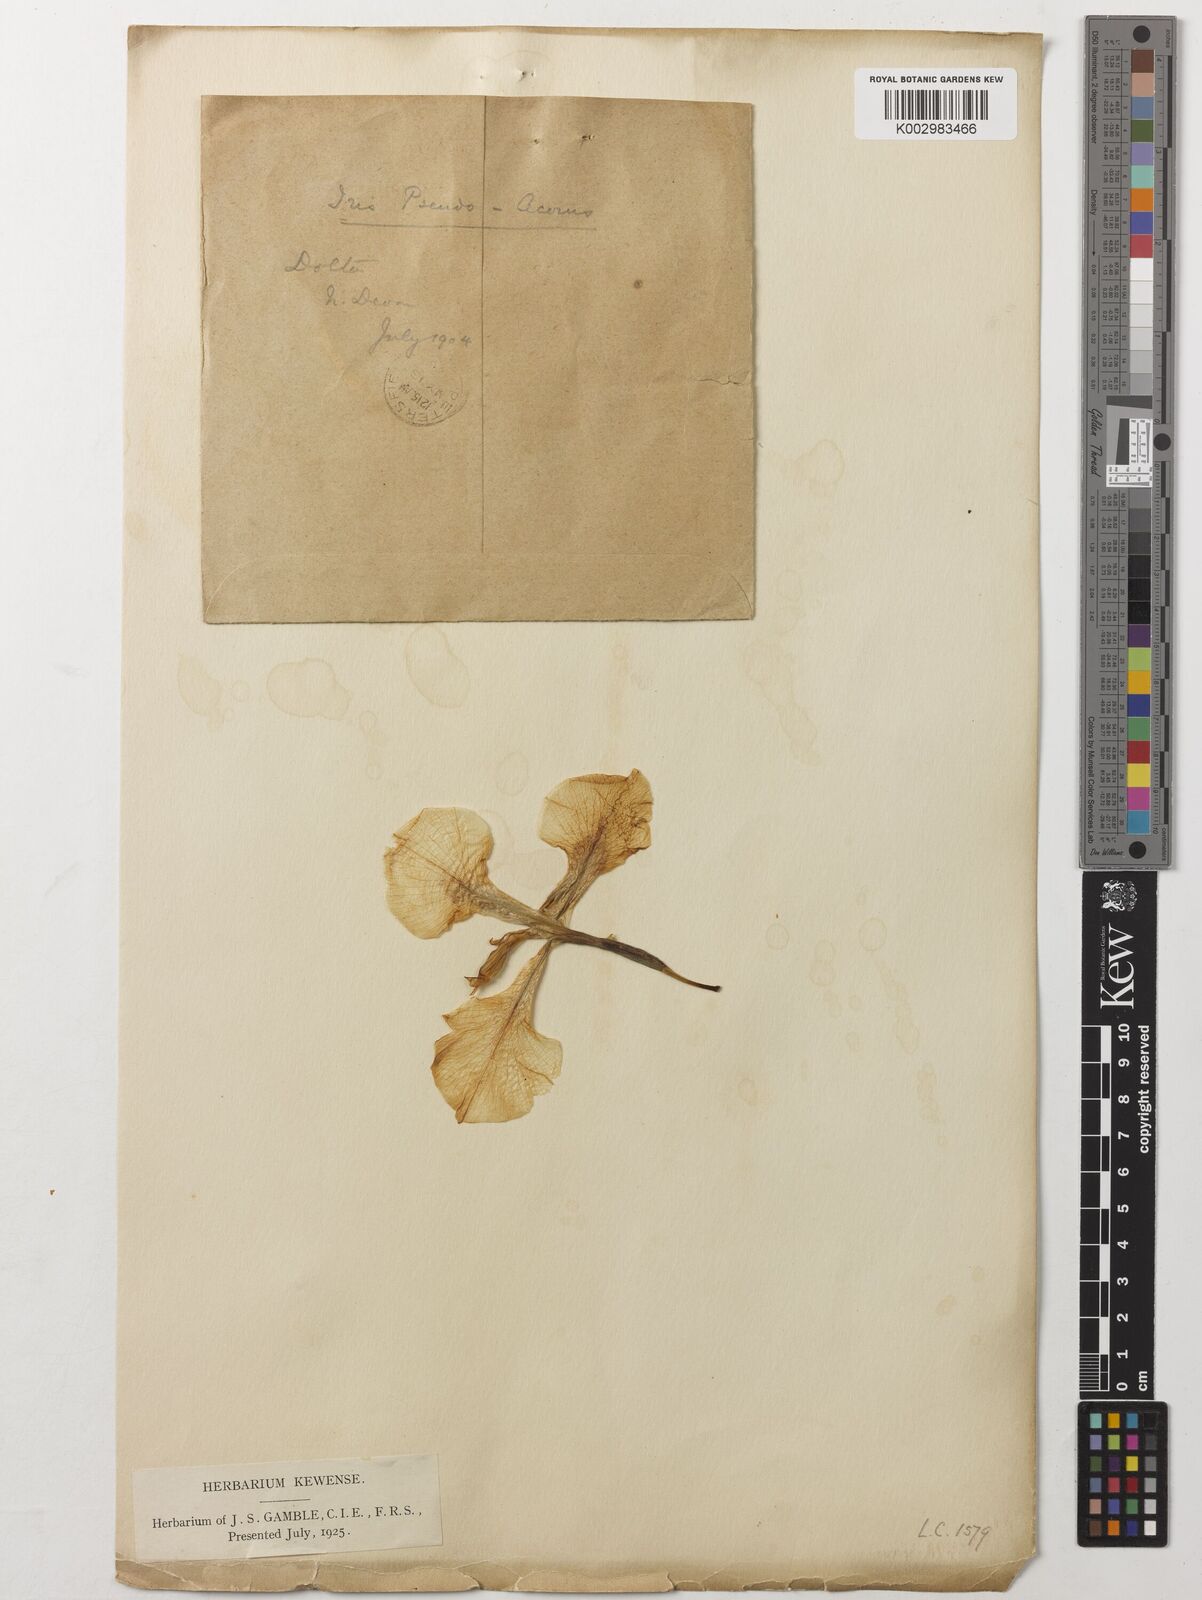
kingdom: Plantae
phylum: Tracheophyta
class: Liliopsida
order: Asparagales
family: Iridaceae
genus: Iris
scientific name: Iris pseudacorus
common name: Yellow flag
